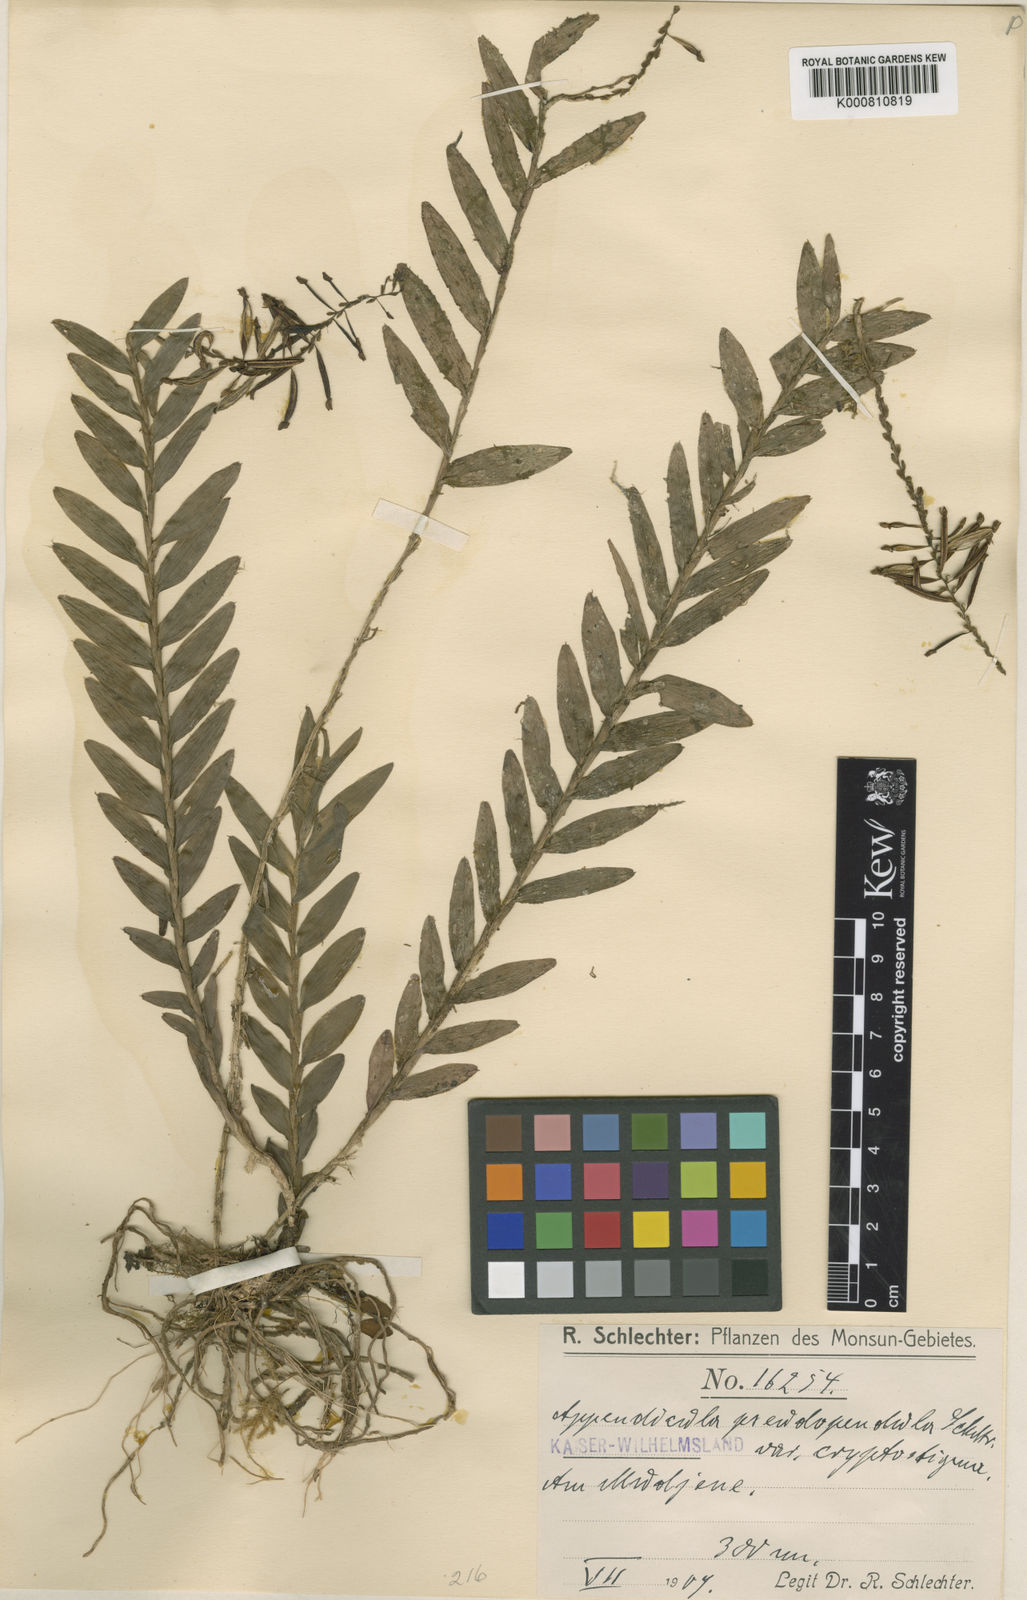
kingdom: Plantae
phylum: Tracheophyta
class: Liliopsida
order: Asparagales
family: Orchidaceae
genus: Appendicula
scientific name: Appendicula pendula
